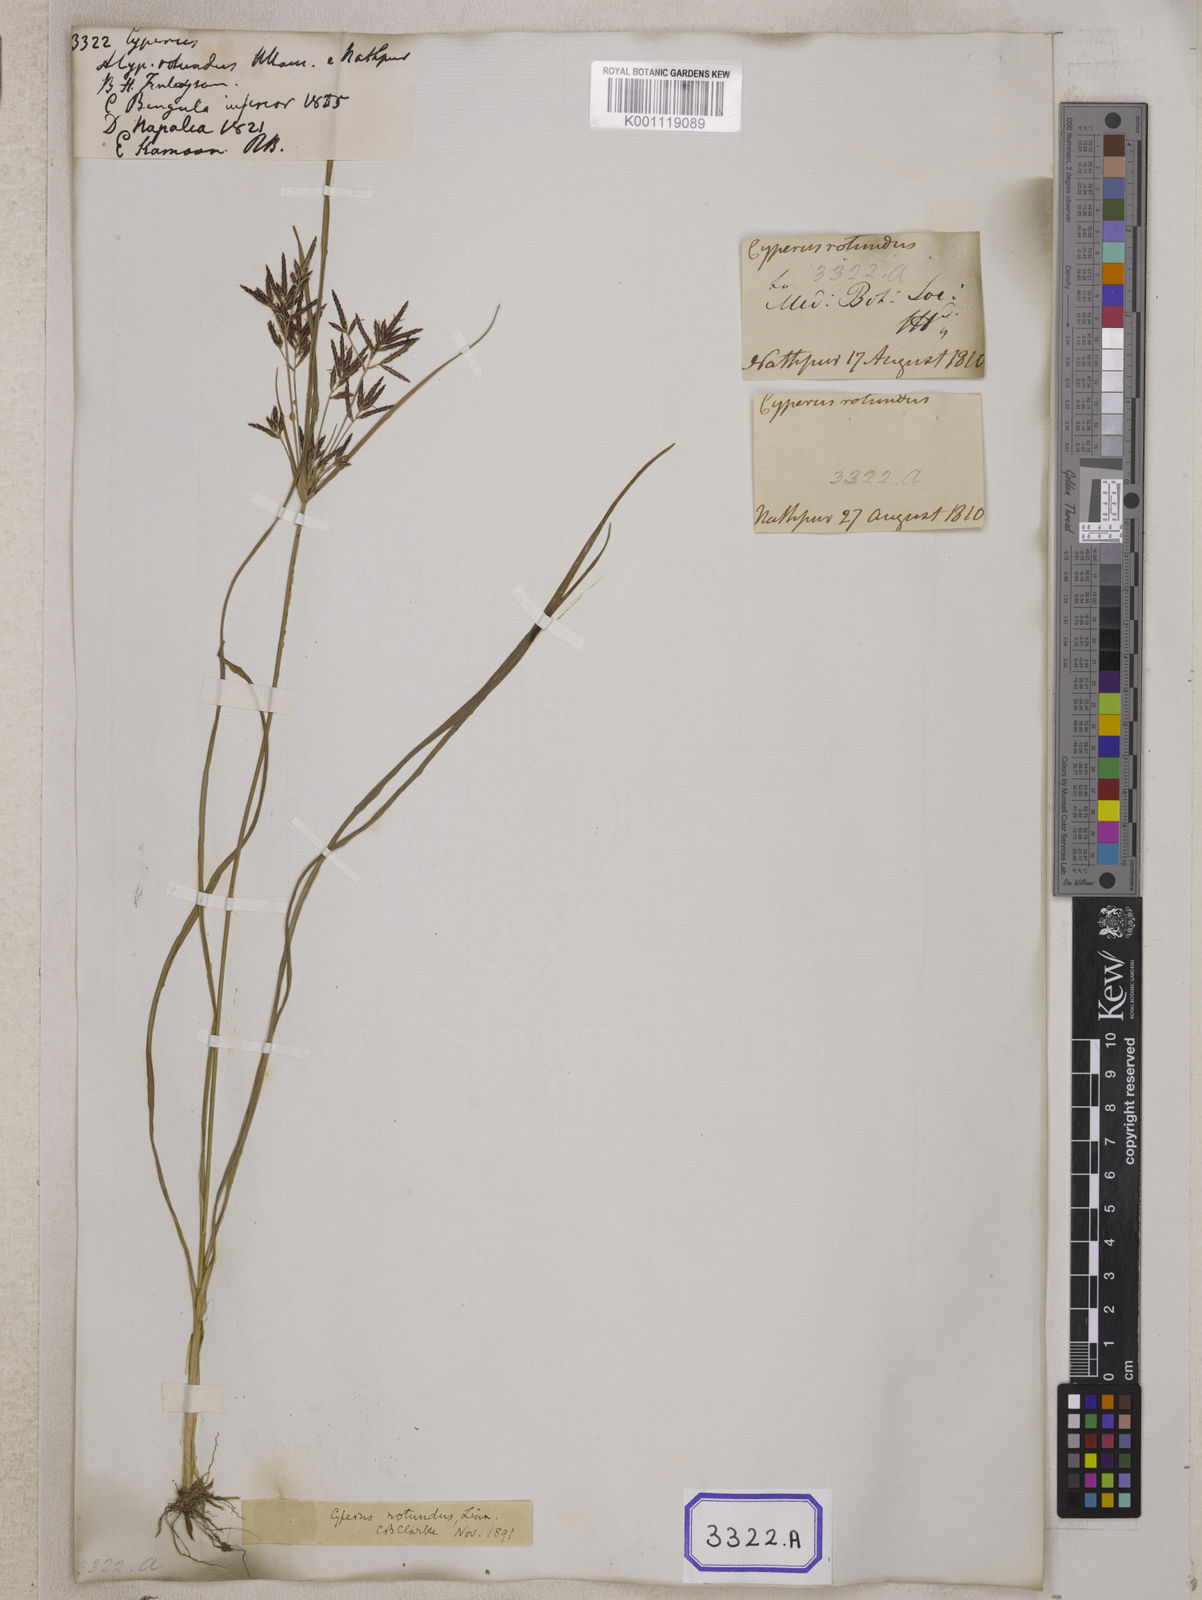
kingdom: Plantae
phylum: Tracheophyta
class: Liliopsida
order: Poales
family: Cyperaceae
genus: Cyperus
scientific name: Cyperus
